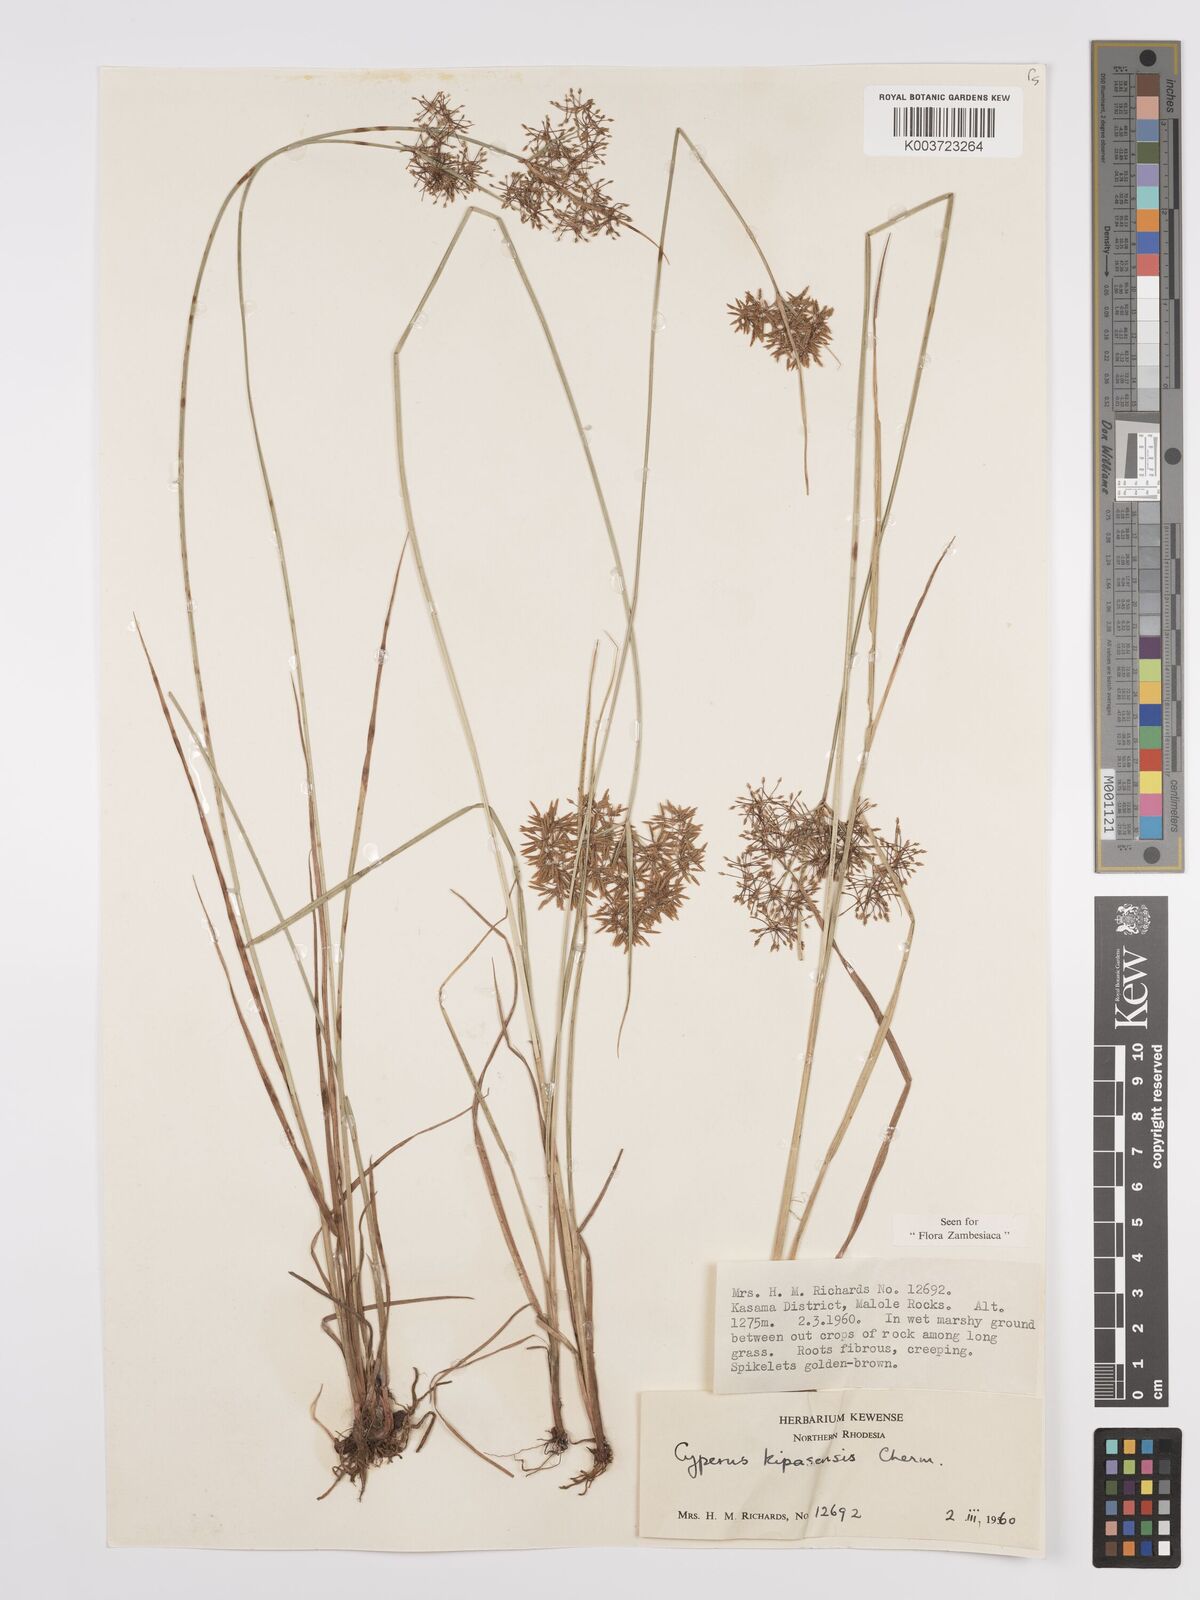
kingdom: Plantae
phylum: Tracheophyta
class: Liliopsida
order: Poales
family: Cyperaceae
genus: Cyperus
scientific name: Cyperus kipasensis
